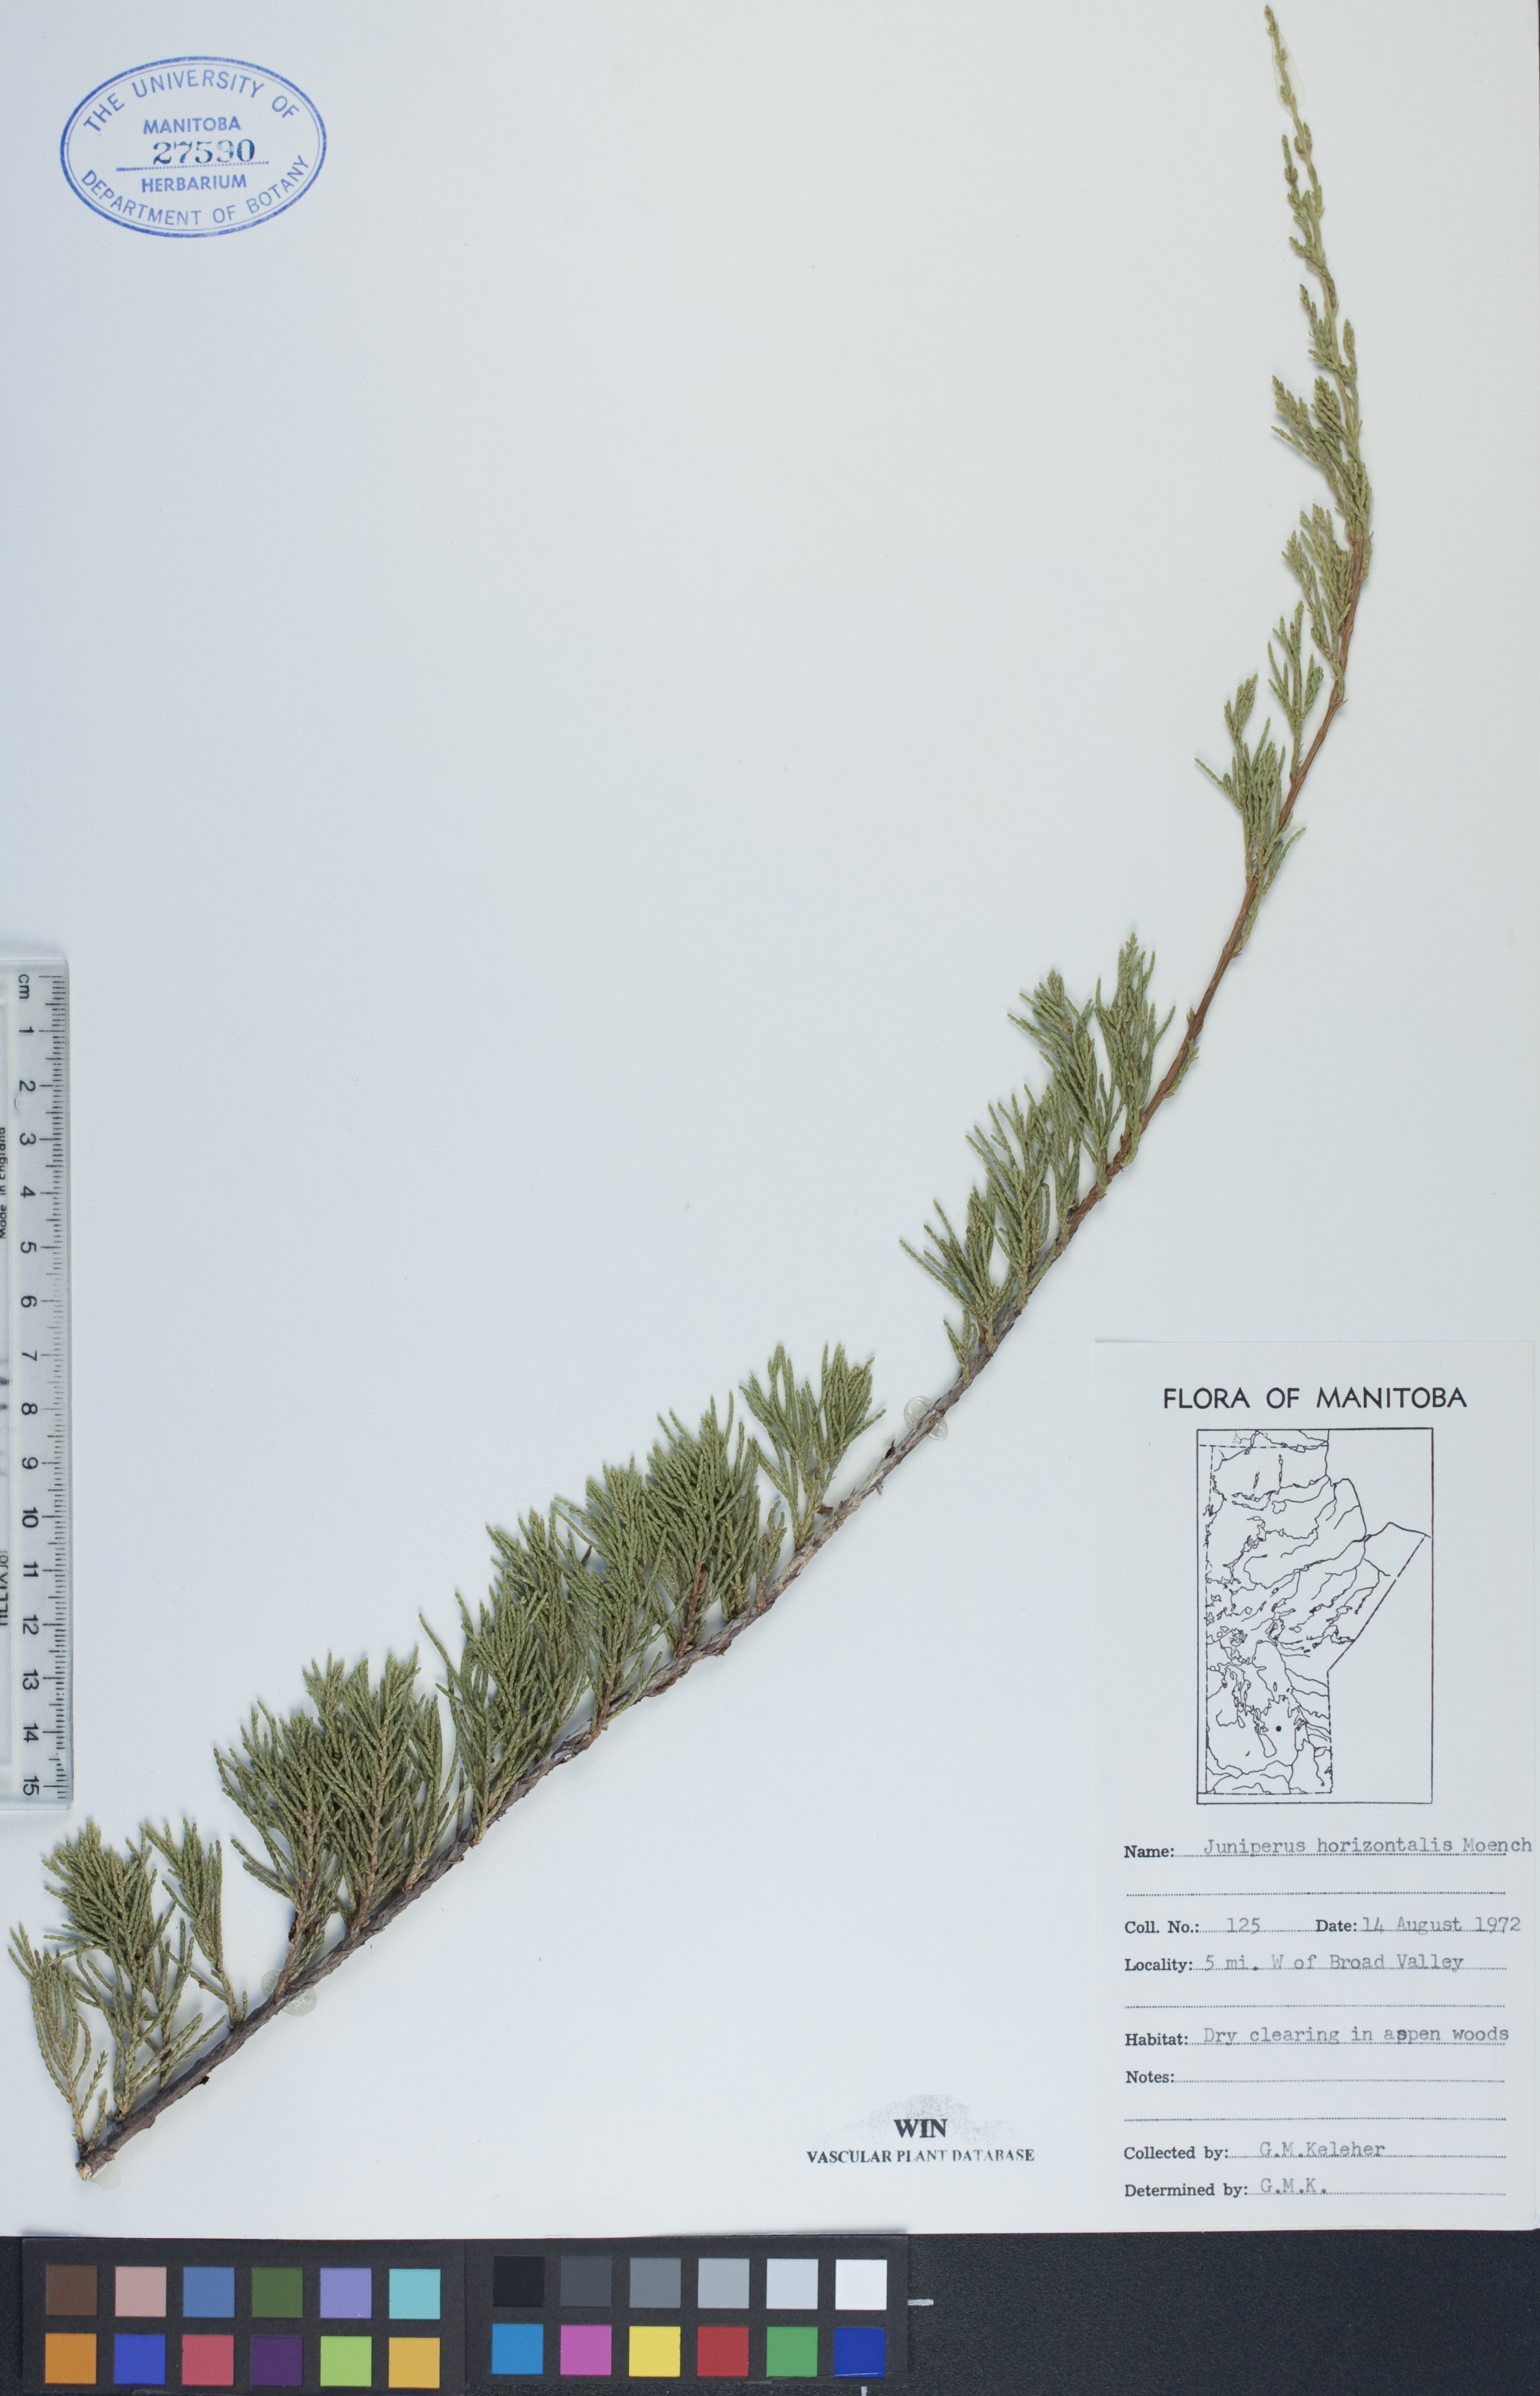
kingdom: Plantae
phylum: Tracheophyta
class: Pinopsida
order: Pinales
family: Cupressaceae
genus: Juniperus
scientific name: Juniperus horizontalis
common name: Creeping juniper
